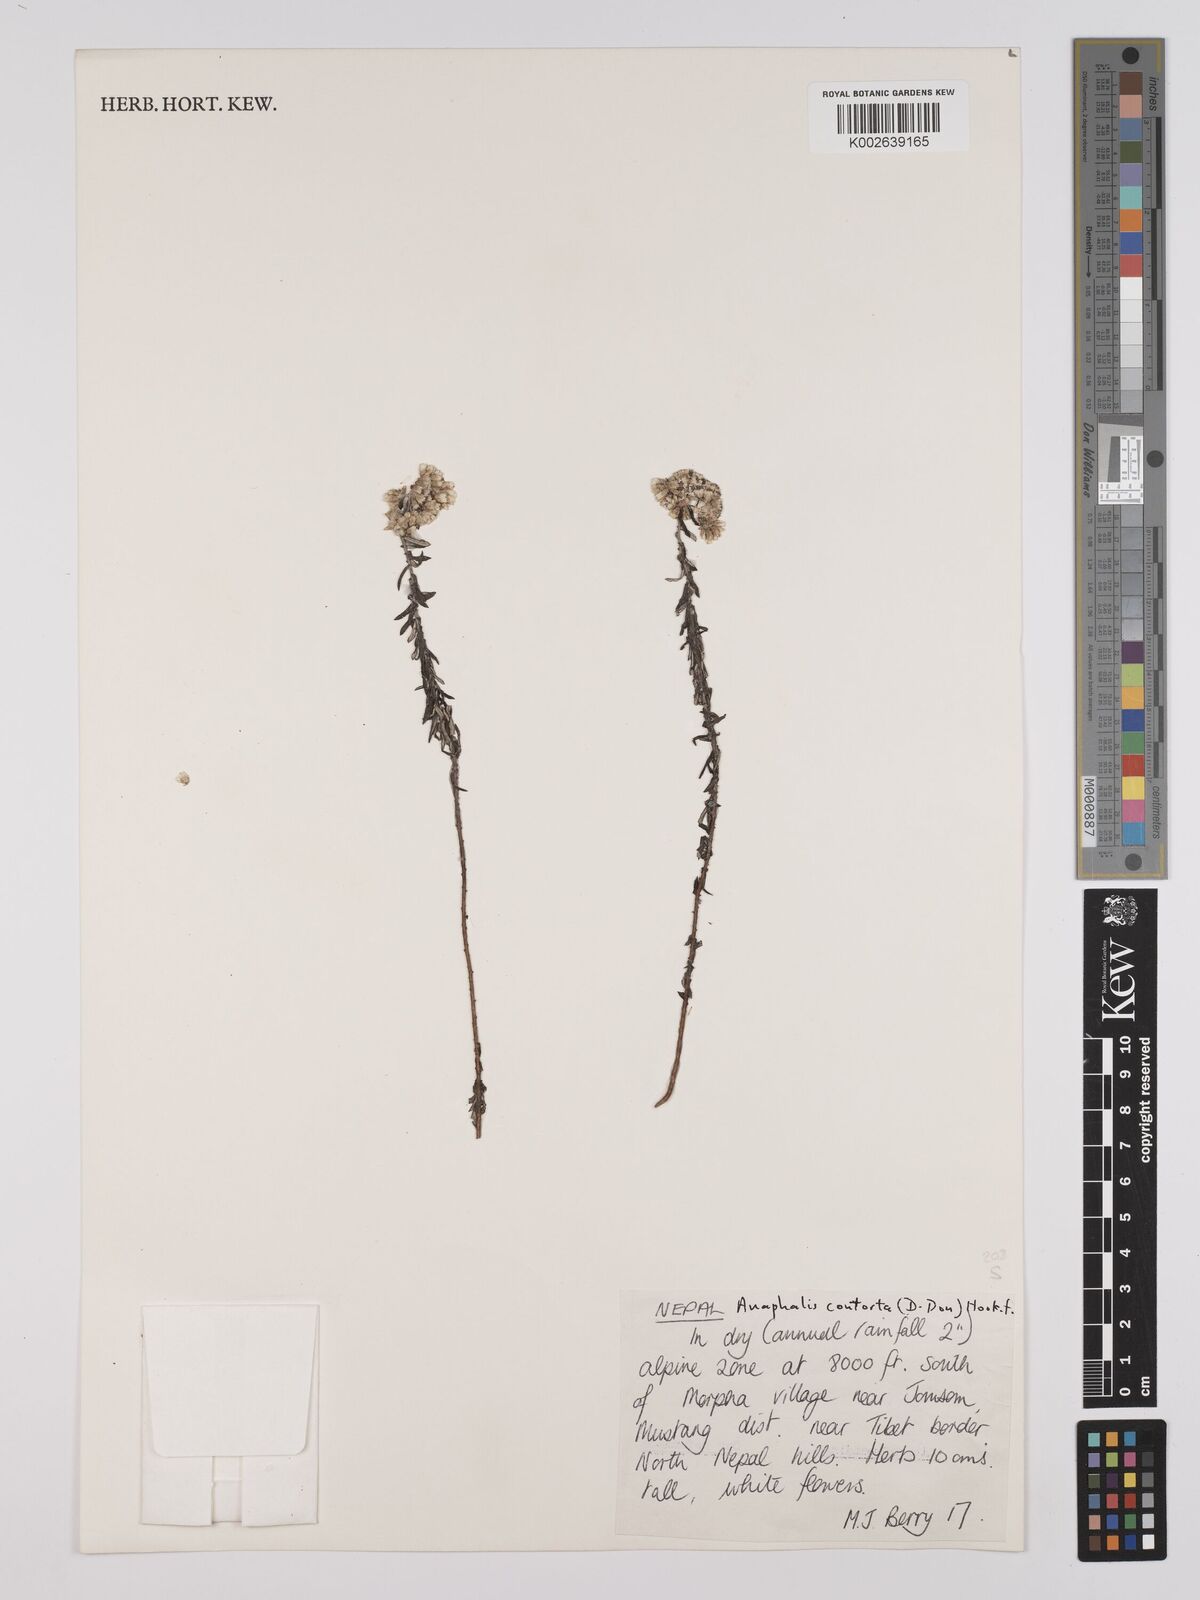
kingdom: Plantae
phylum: Tracheophyta
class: Magnoliopsida
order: Asterales
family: Asteraceae
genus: Anaphalis
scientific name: Anaphalis contorta
